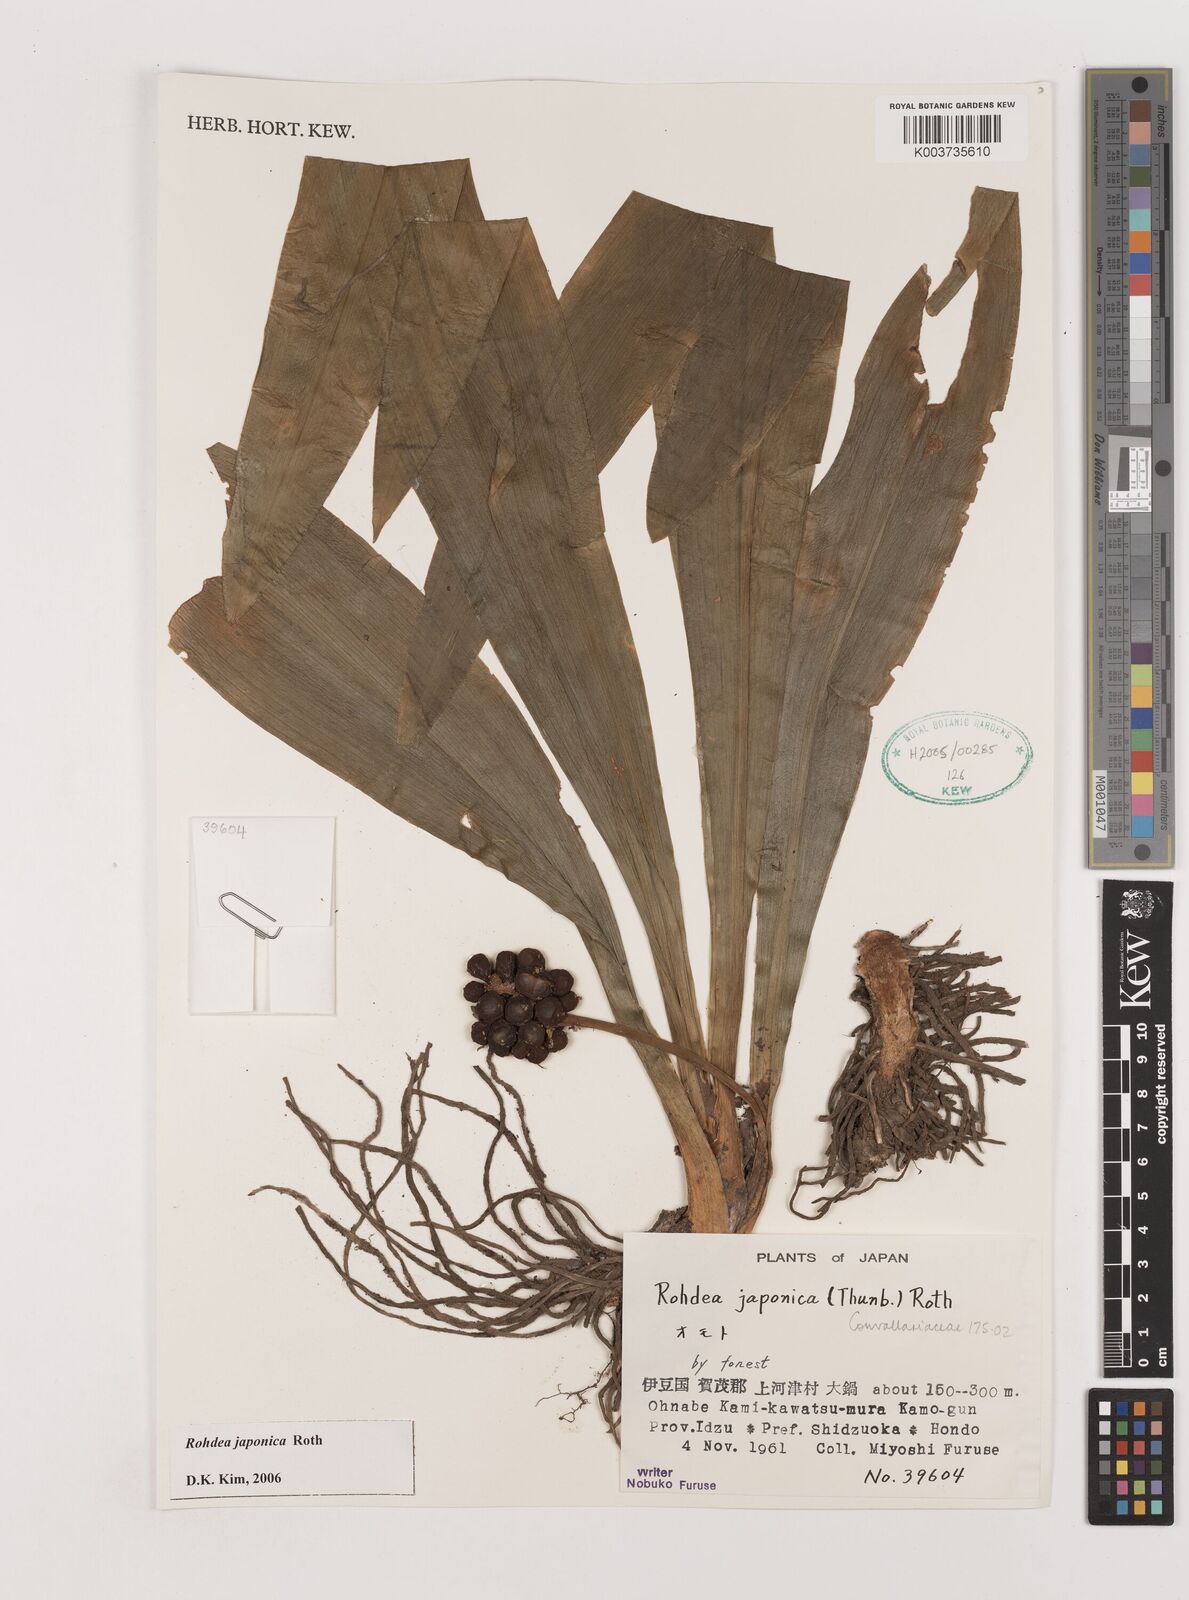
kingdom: Plantae
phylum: Tracheophyta
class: Liliopsida
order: Asparagales
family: Asparagaceae
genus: Rohdea
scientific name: Rohdea japonica
